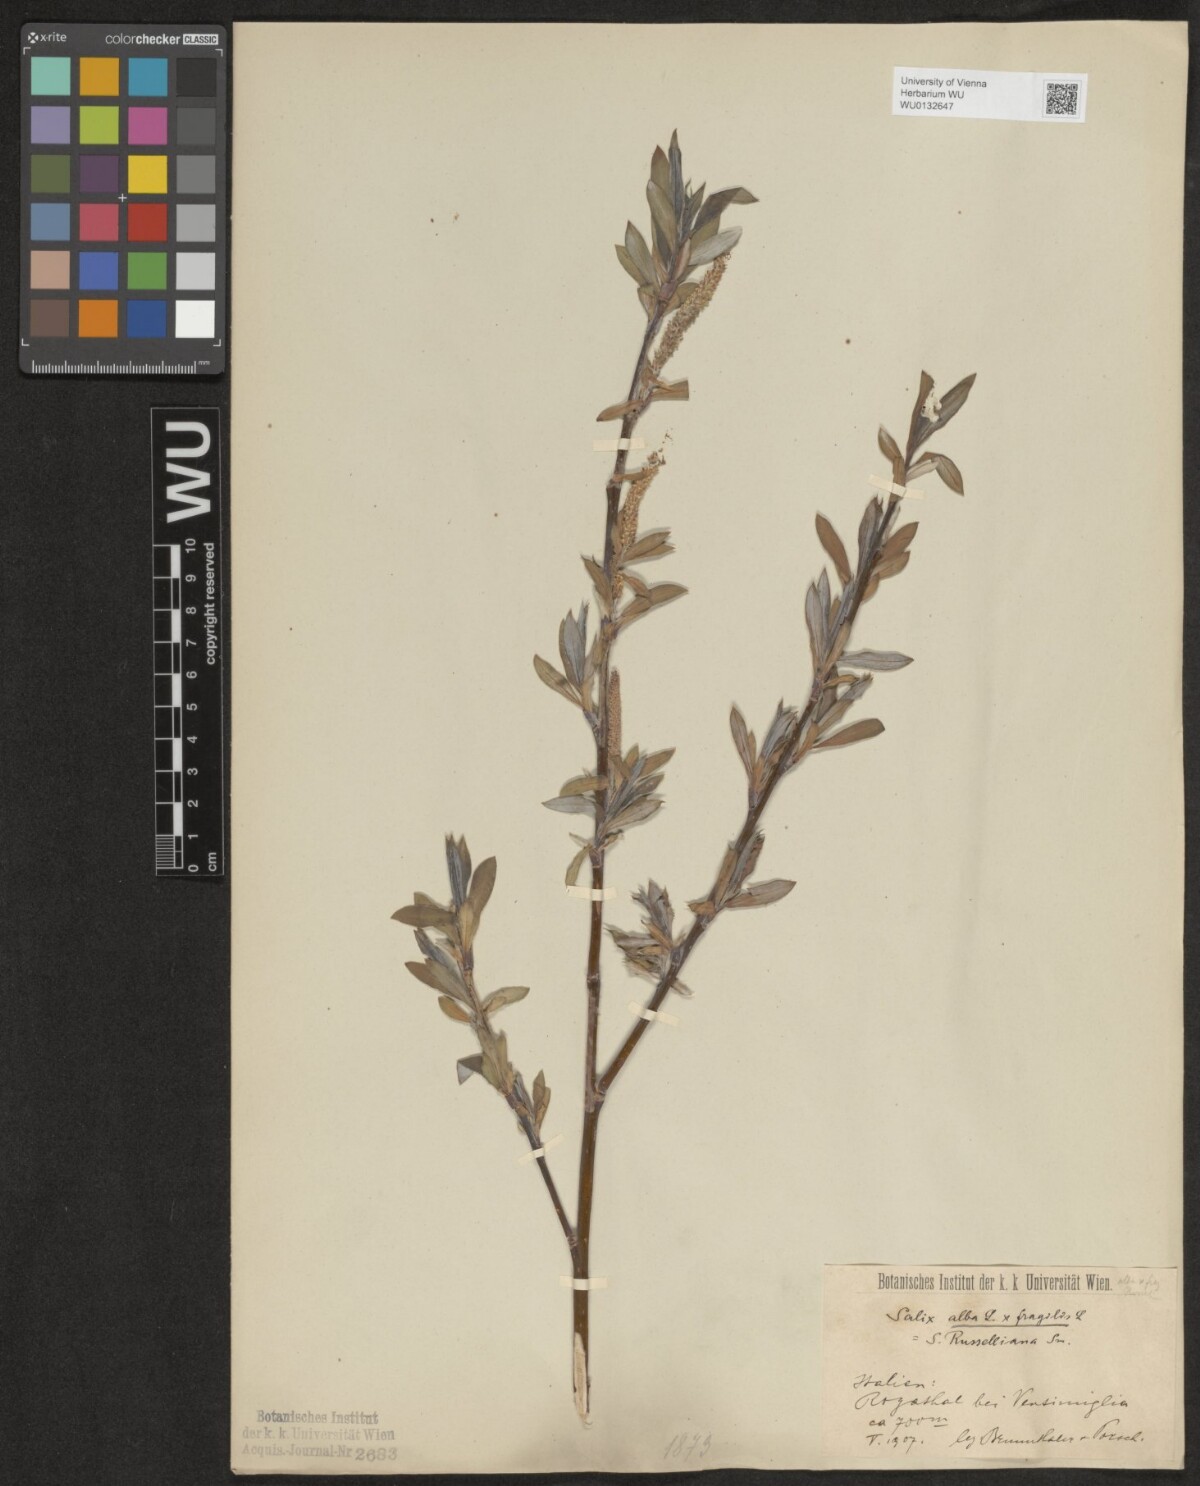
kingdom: Plantae
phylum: Tracheophyta
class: Magnoliopsida
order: Malpighiales
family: Salicaceae
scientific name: Salicaceae
